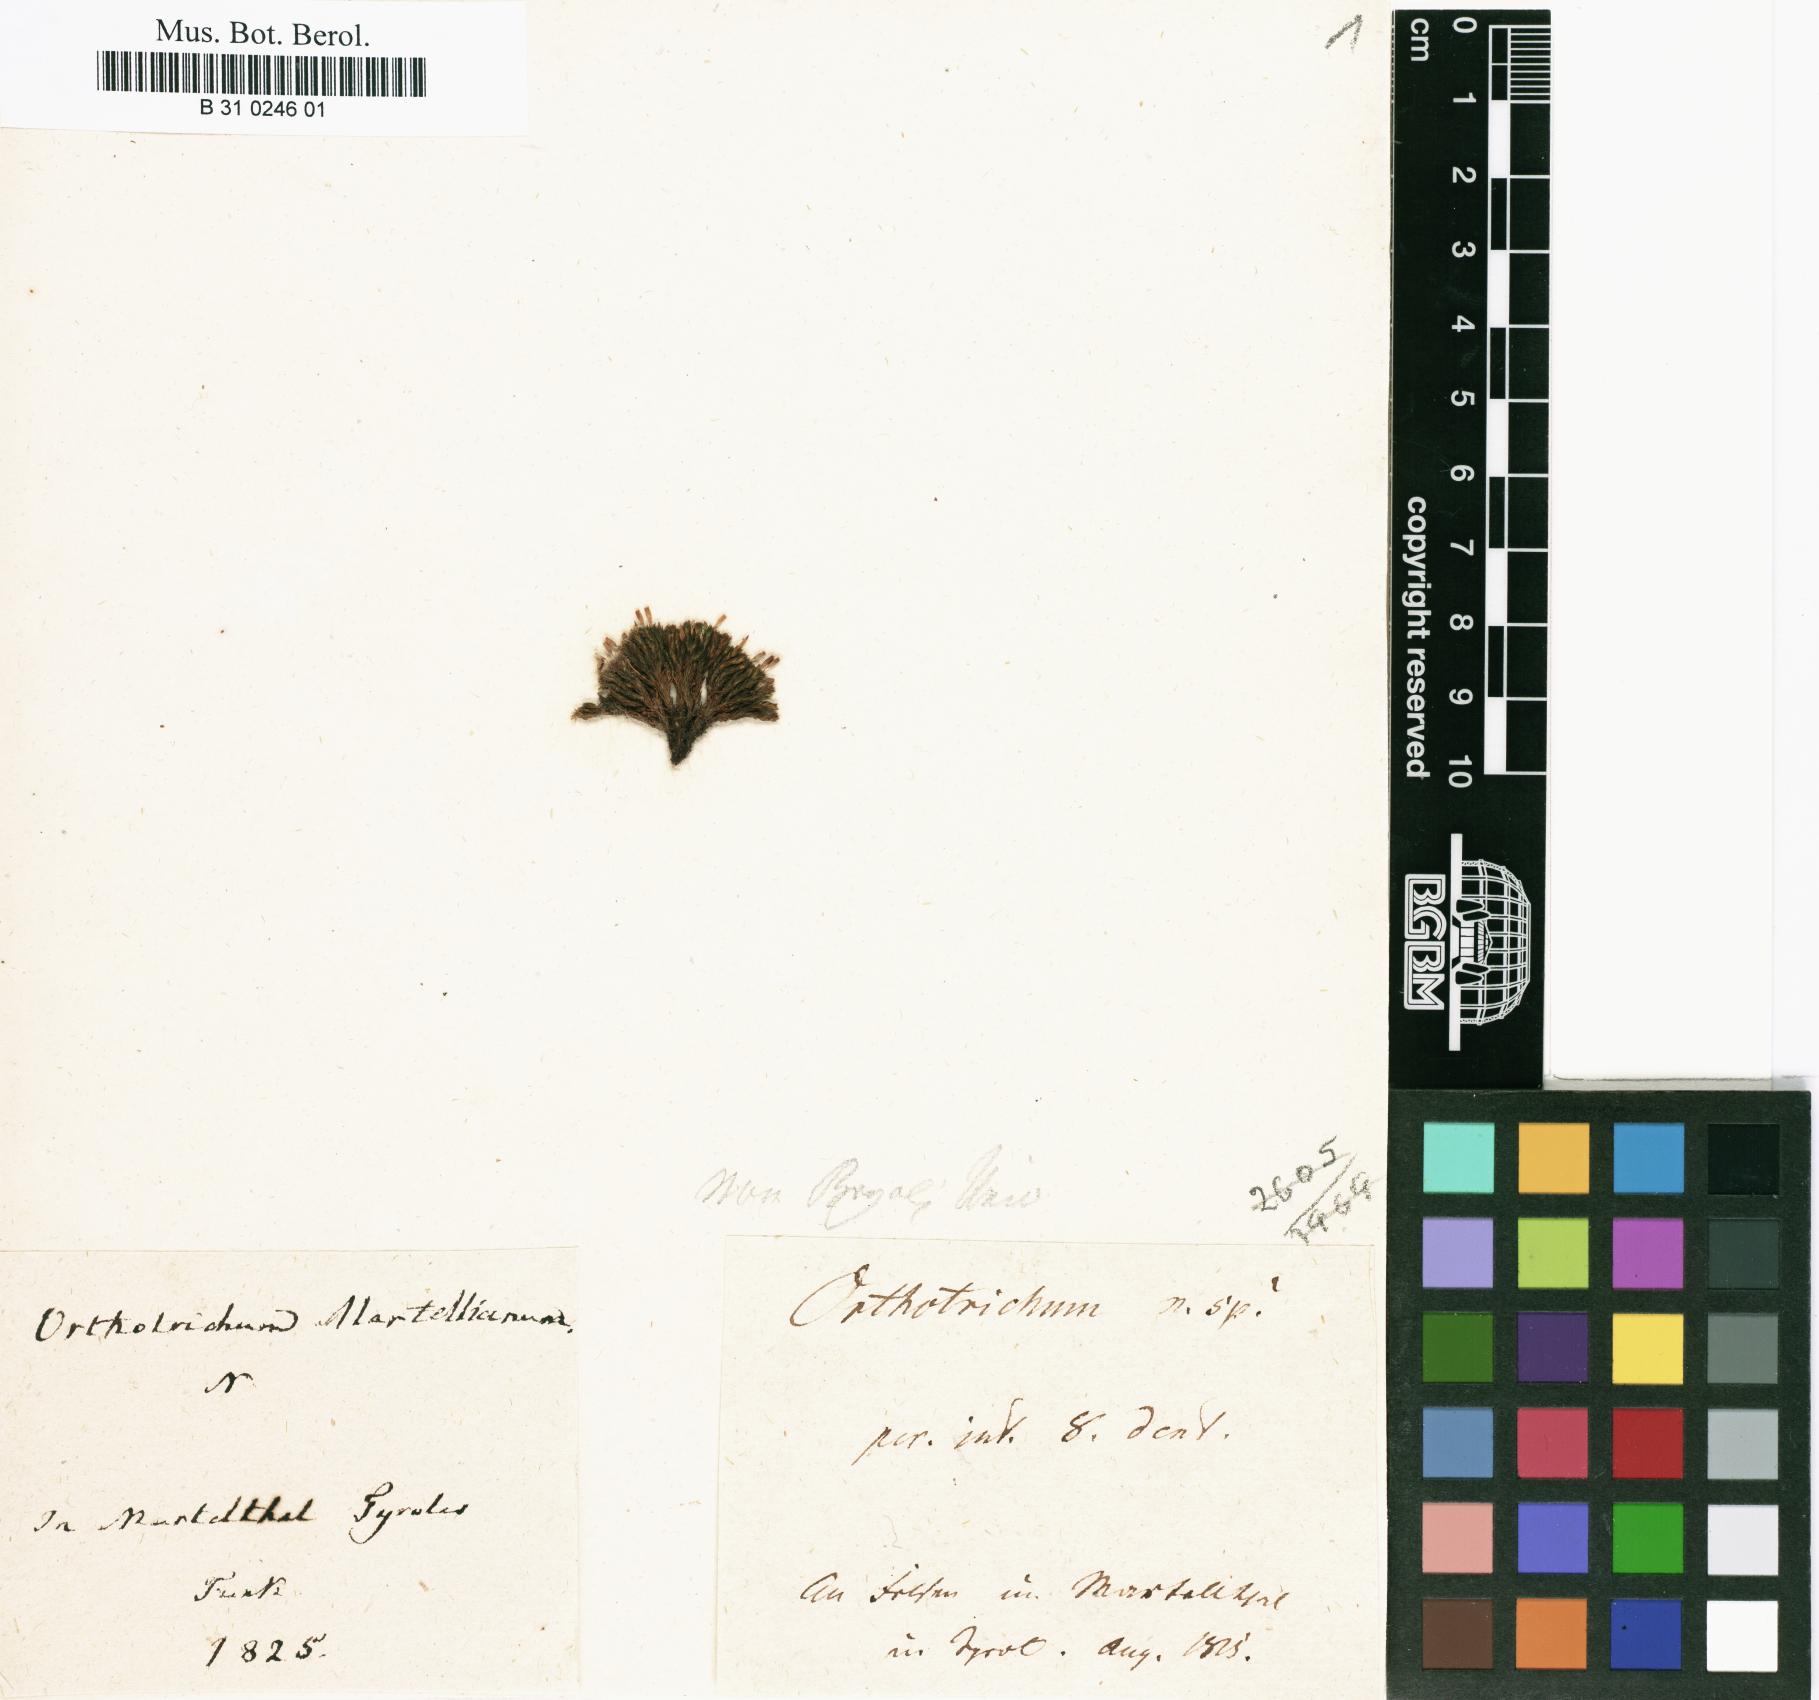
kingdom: Plantae
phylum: Bryophyta
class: Bryopsida
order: Orthotrichales
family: Orthotrichaceae
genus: Orthotrichum
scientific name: Orthotrichum
